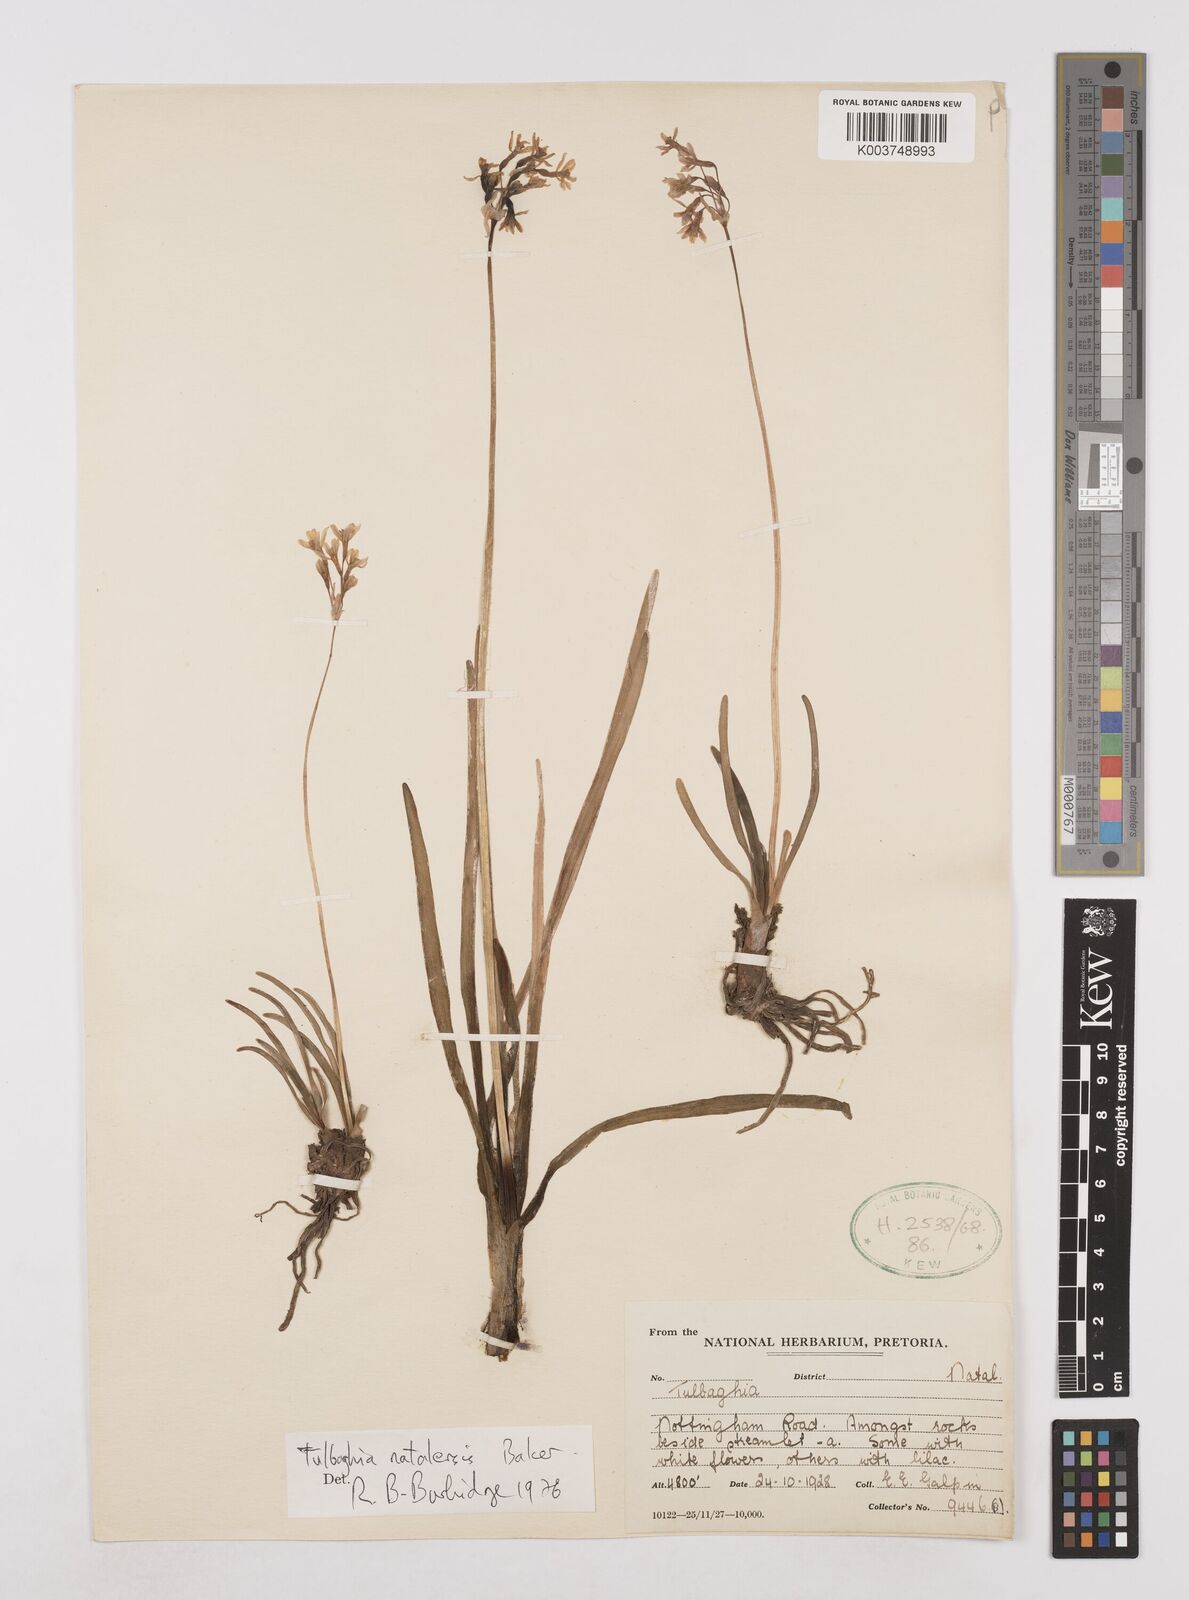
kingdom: Plantae
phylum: Tracheophyta
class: Liliopsida
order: Asparagales
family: Amaryllidaceae
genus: Tulbaghia
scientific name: Tulbaghia natalensis
